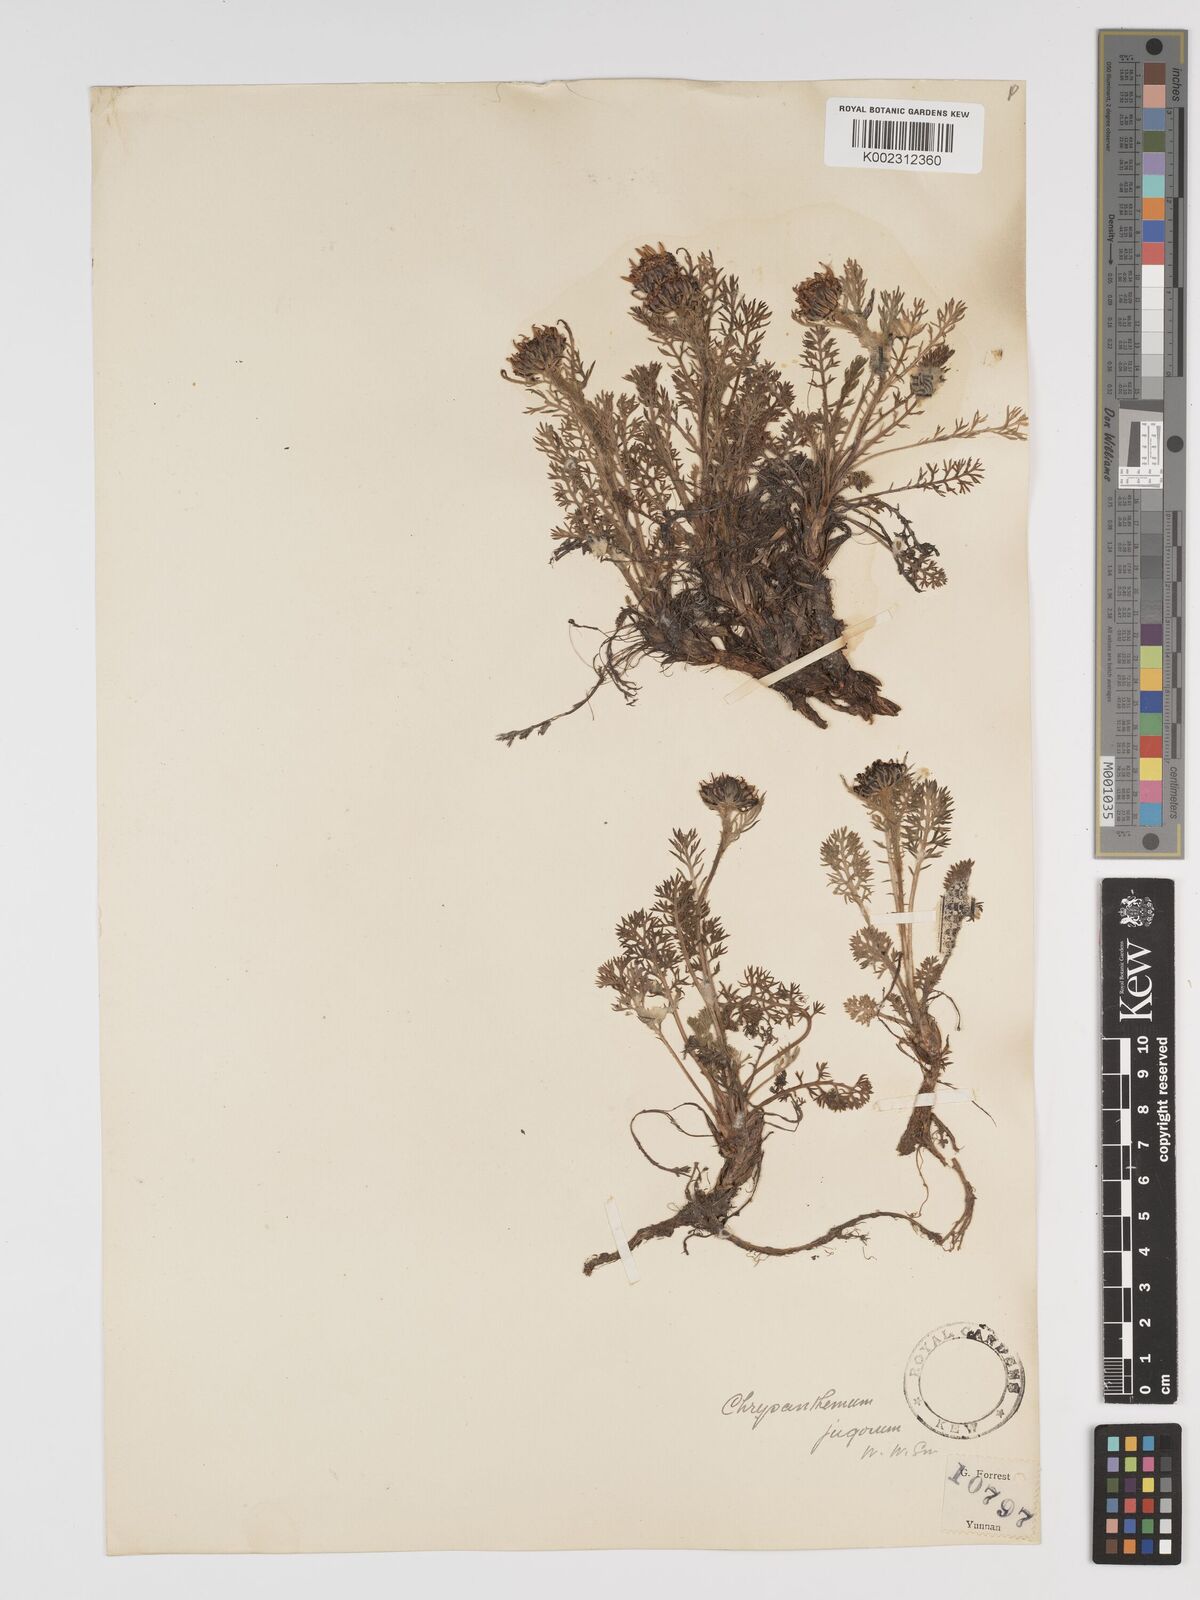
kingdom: Plantae
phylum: Tracheophyta
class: Magnoliopsida
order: Asterales
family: Asteraceae
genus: Tanacetum
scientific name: Tanacetum tatsienense
